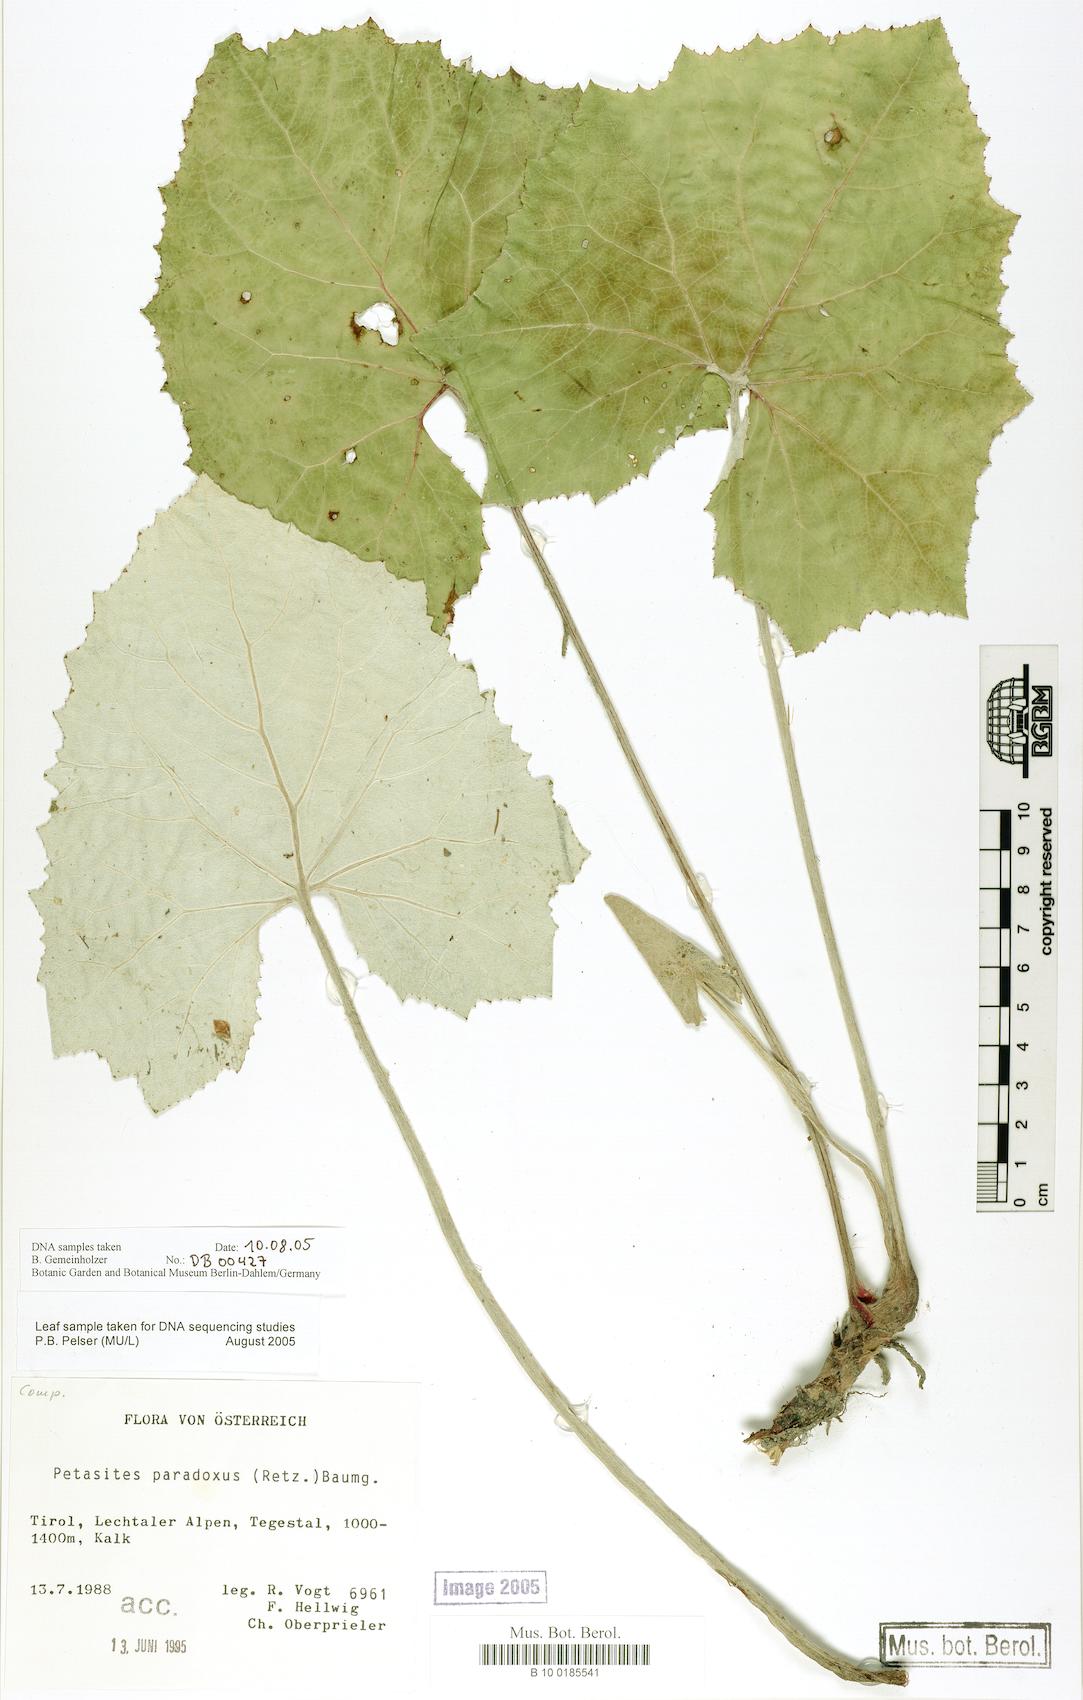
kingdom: Plantae
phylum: Tracheophyta
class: Magnoliopsida
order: Asterales
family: Asteraceae
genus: Petasites
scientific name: Petasites paradoxus
